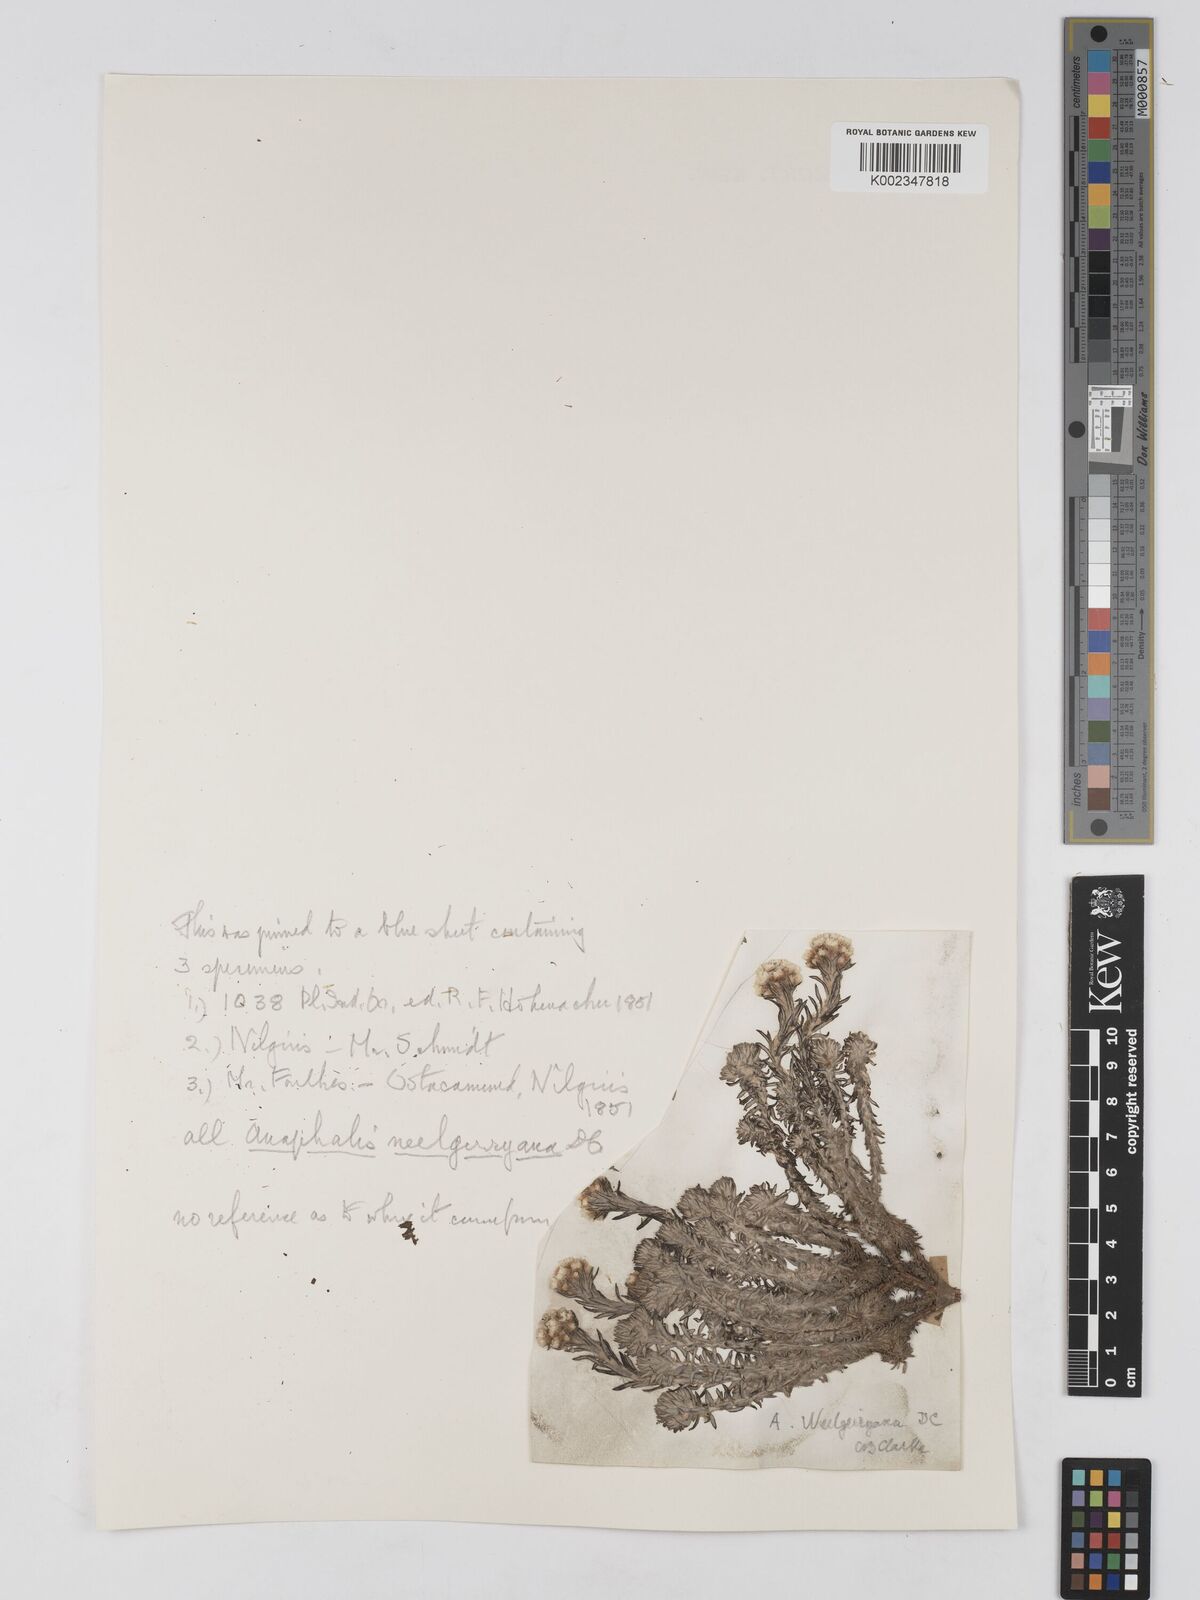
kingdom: Plantae
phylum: Tracheophyta
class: Magnoliopsida
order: Asterales
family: Asteraceae
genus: Anaphalis
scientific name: Anaphalis neelgerryana
